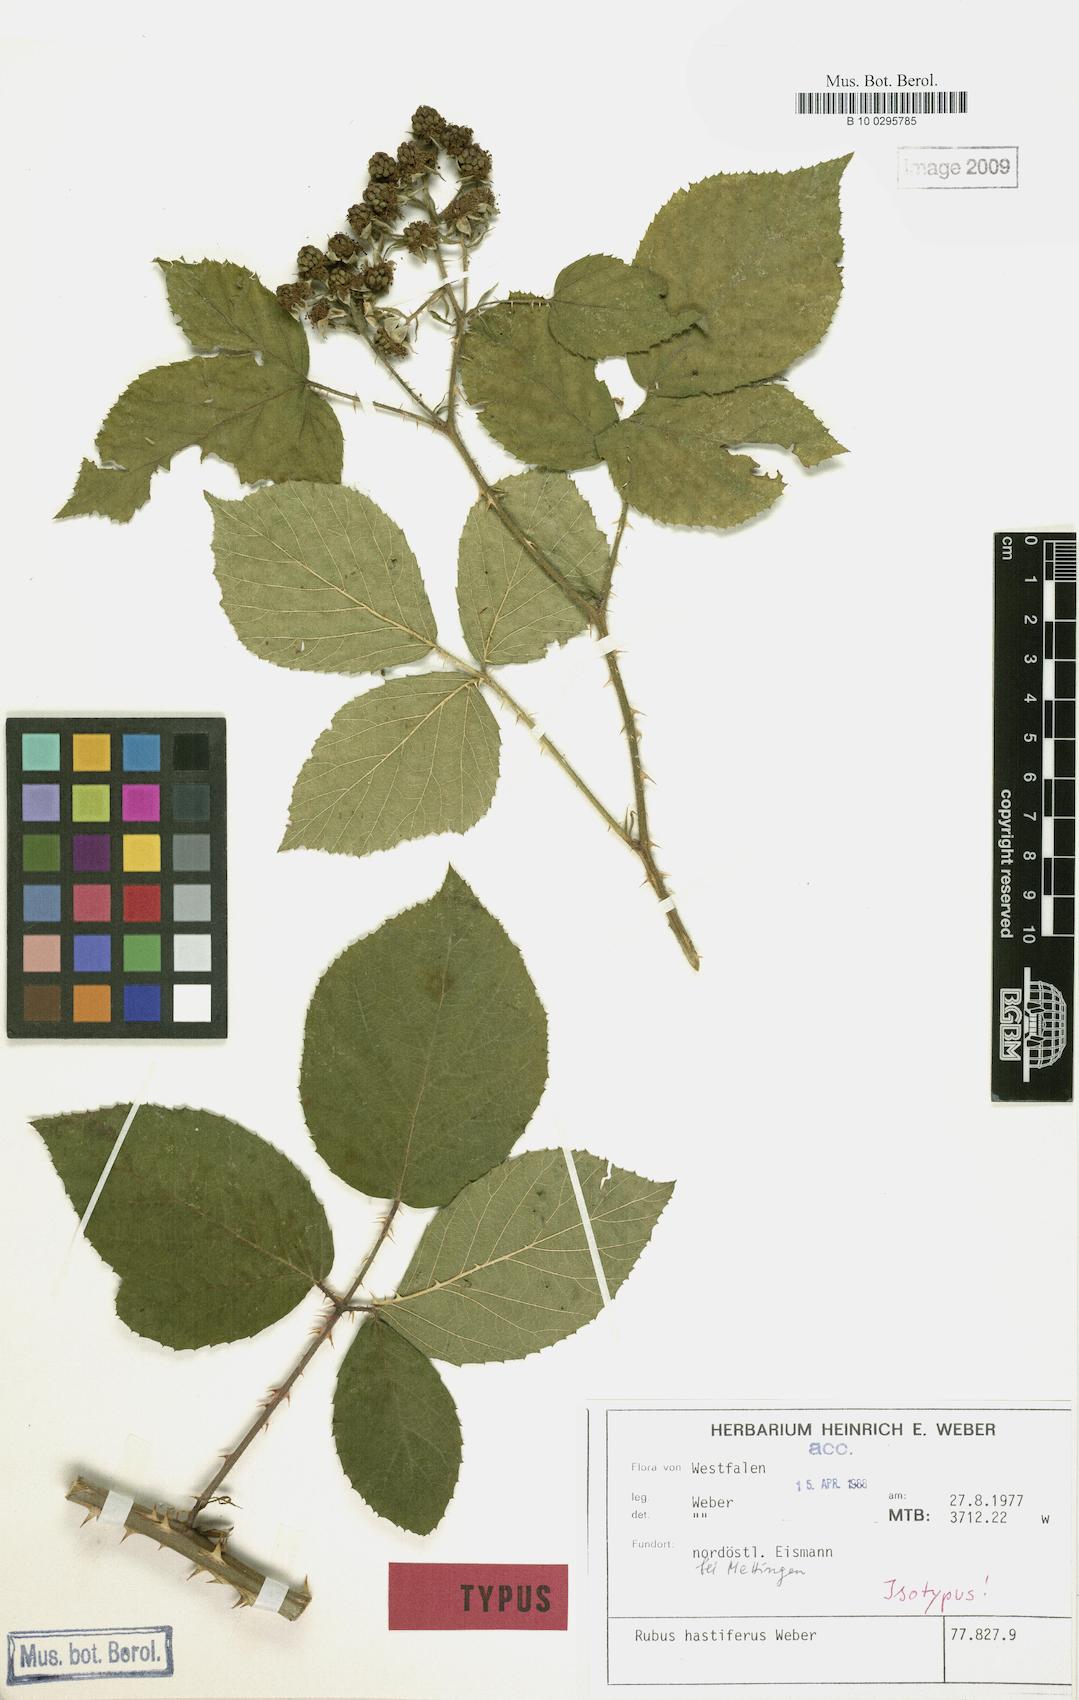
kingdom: Plantae
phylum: Tracheophyta
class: Magnoliopsida
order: Rosales
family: Rosaceae
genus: Rubus
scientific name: Rubus hastiferus
